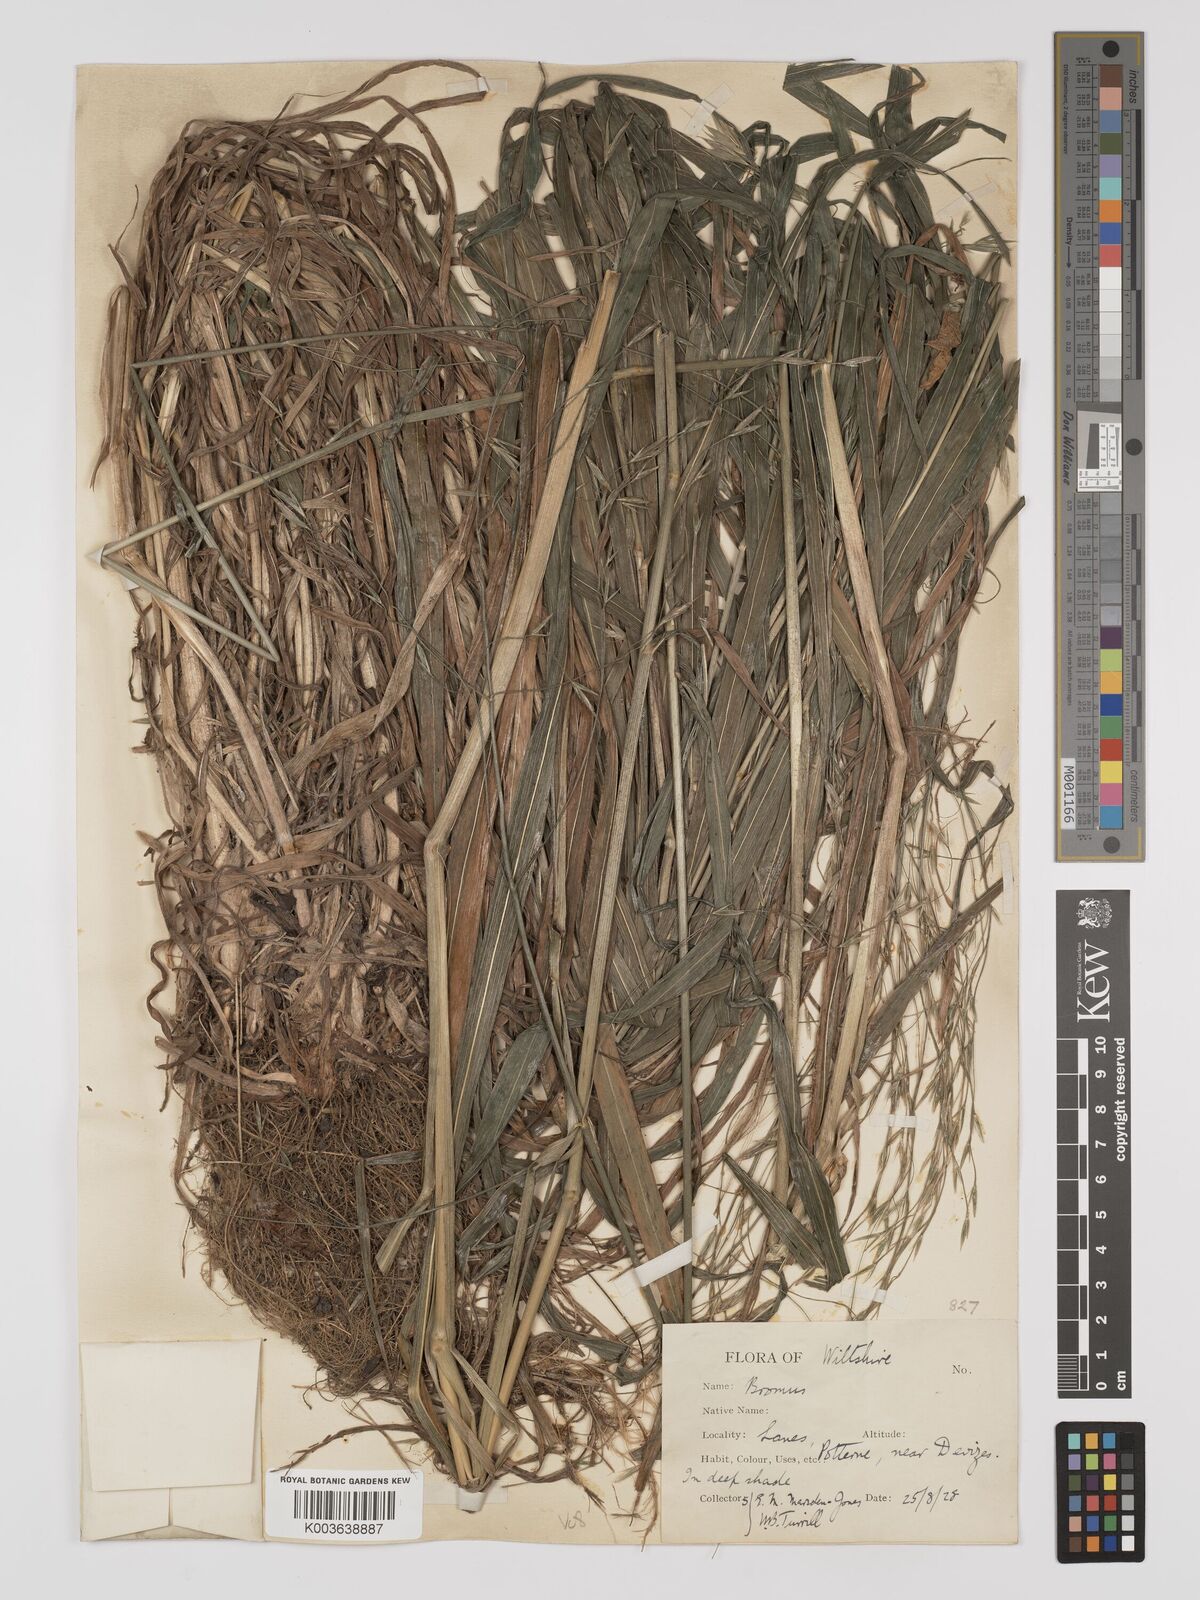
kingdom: Plantae
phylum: Tracheophyta
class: Liliopsida
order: Poales
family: Poaceae
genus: Brachypodium
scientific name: Brachypodium retusum
